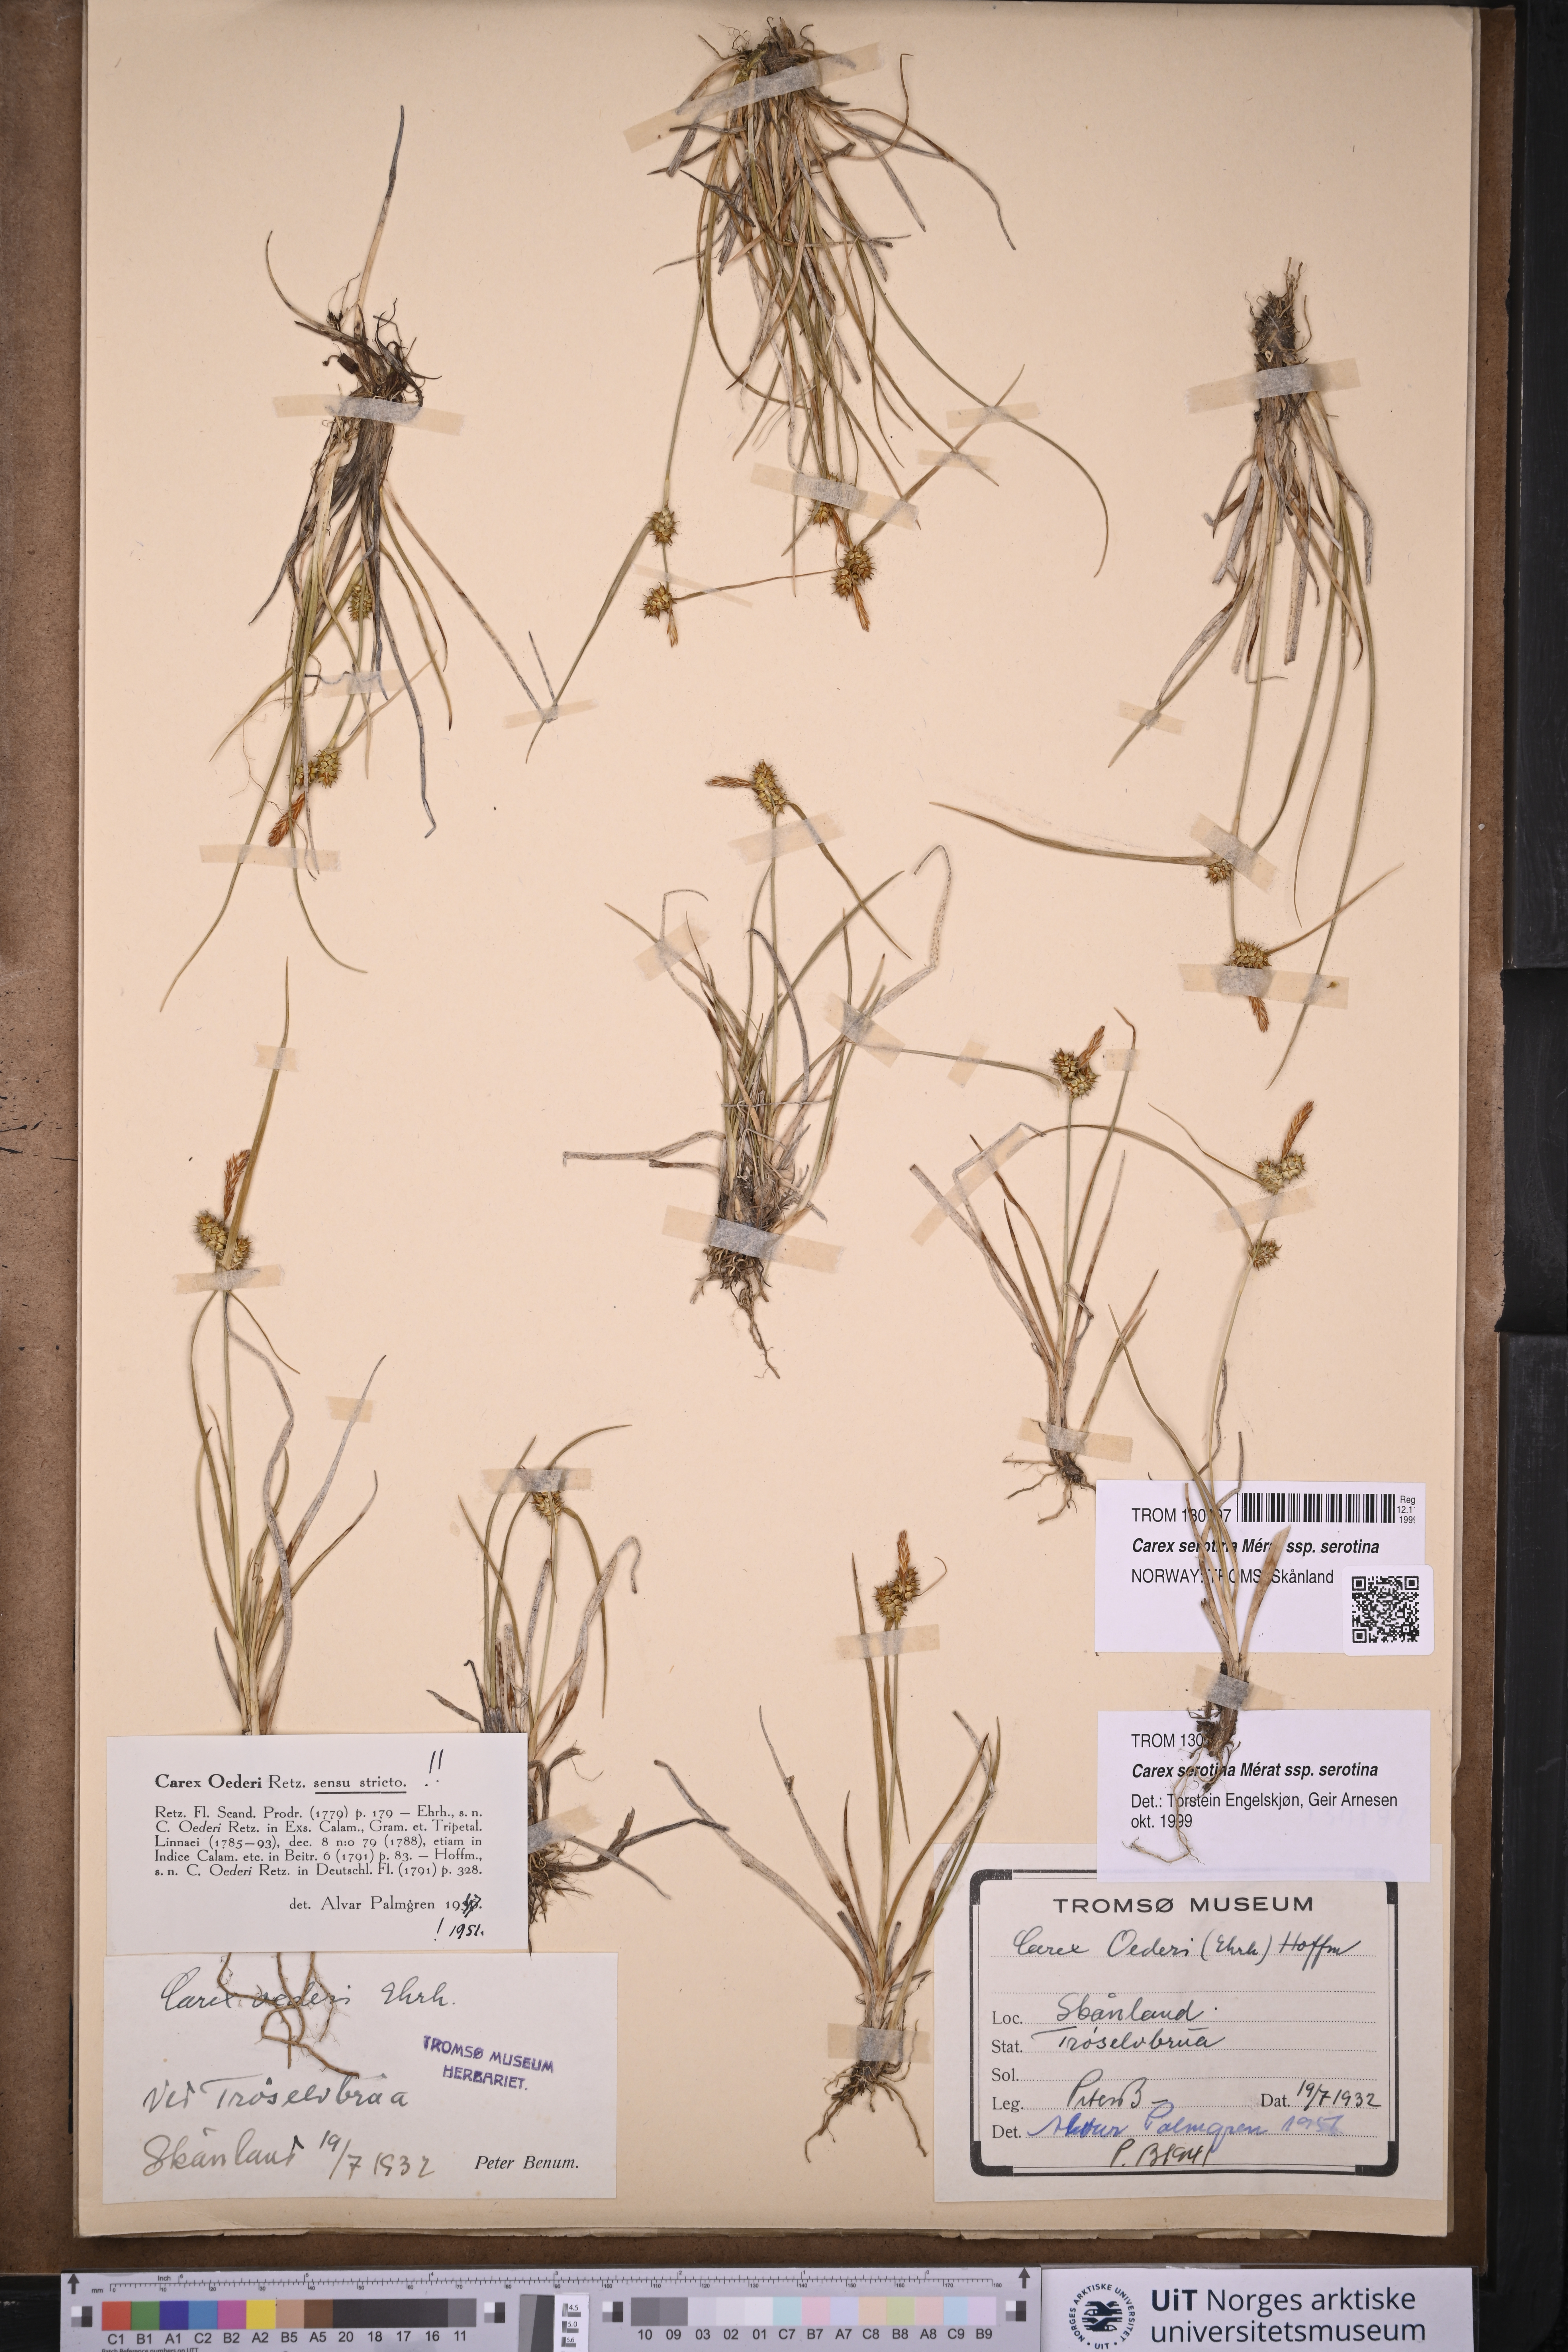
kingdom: Plantae
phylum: Tracheophyta
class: Liliopsida
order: Poales
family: Cyperaceae
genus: Carex
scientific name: Carex oederi
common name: Common & small-fruited yellow-sedge
